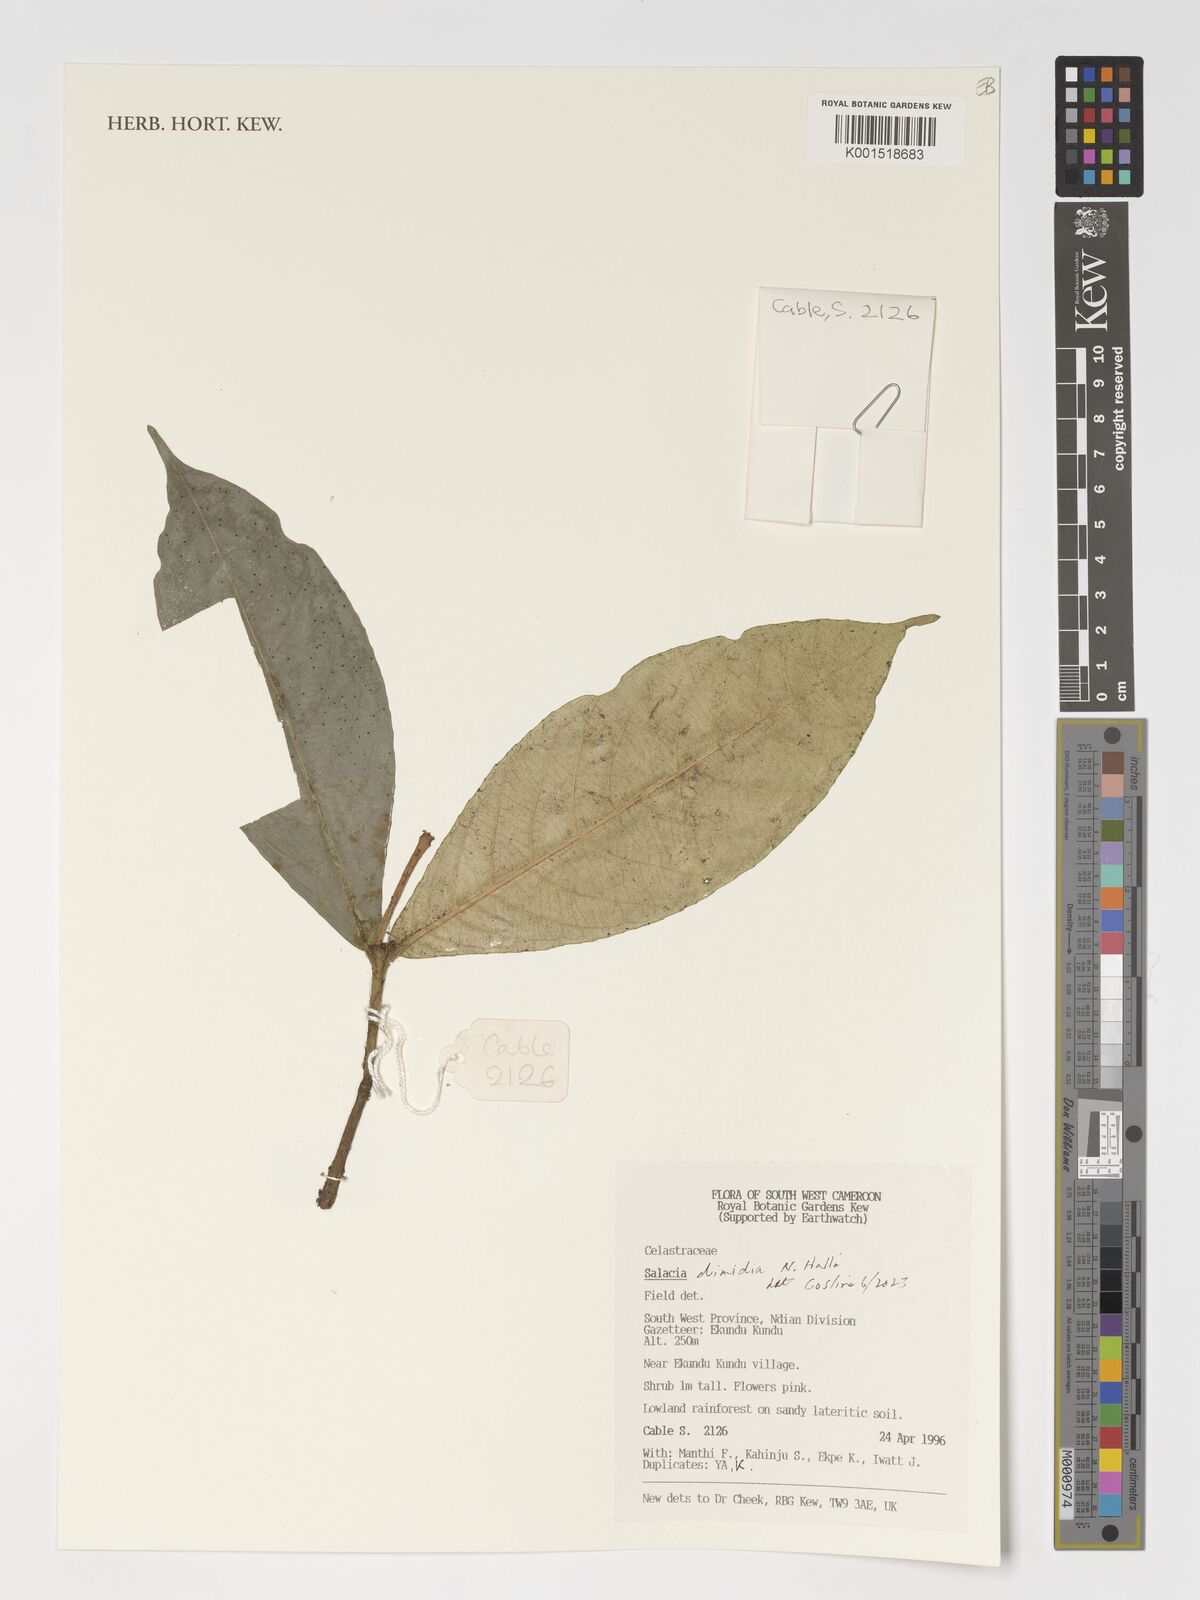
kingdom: Plantae
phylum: Tracheophyta
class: Magnoliopsida
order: Celastrales
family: Celastraceae
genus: Salacia
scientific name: Salacia dimidia
